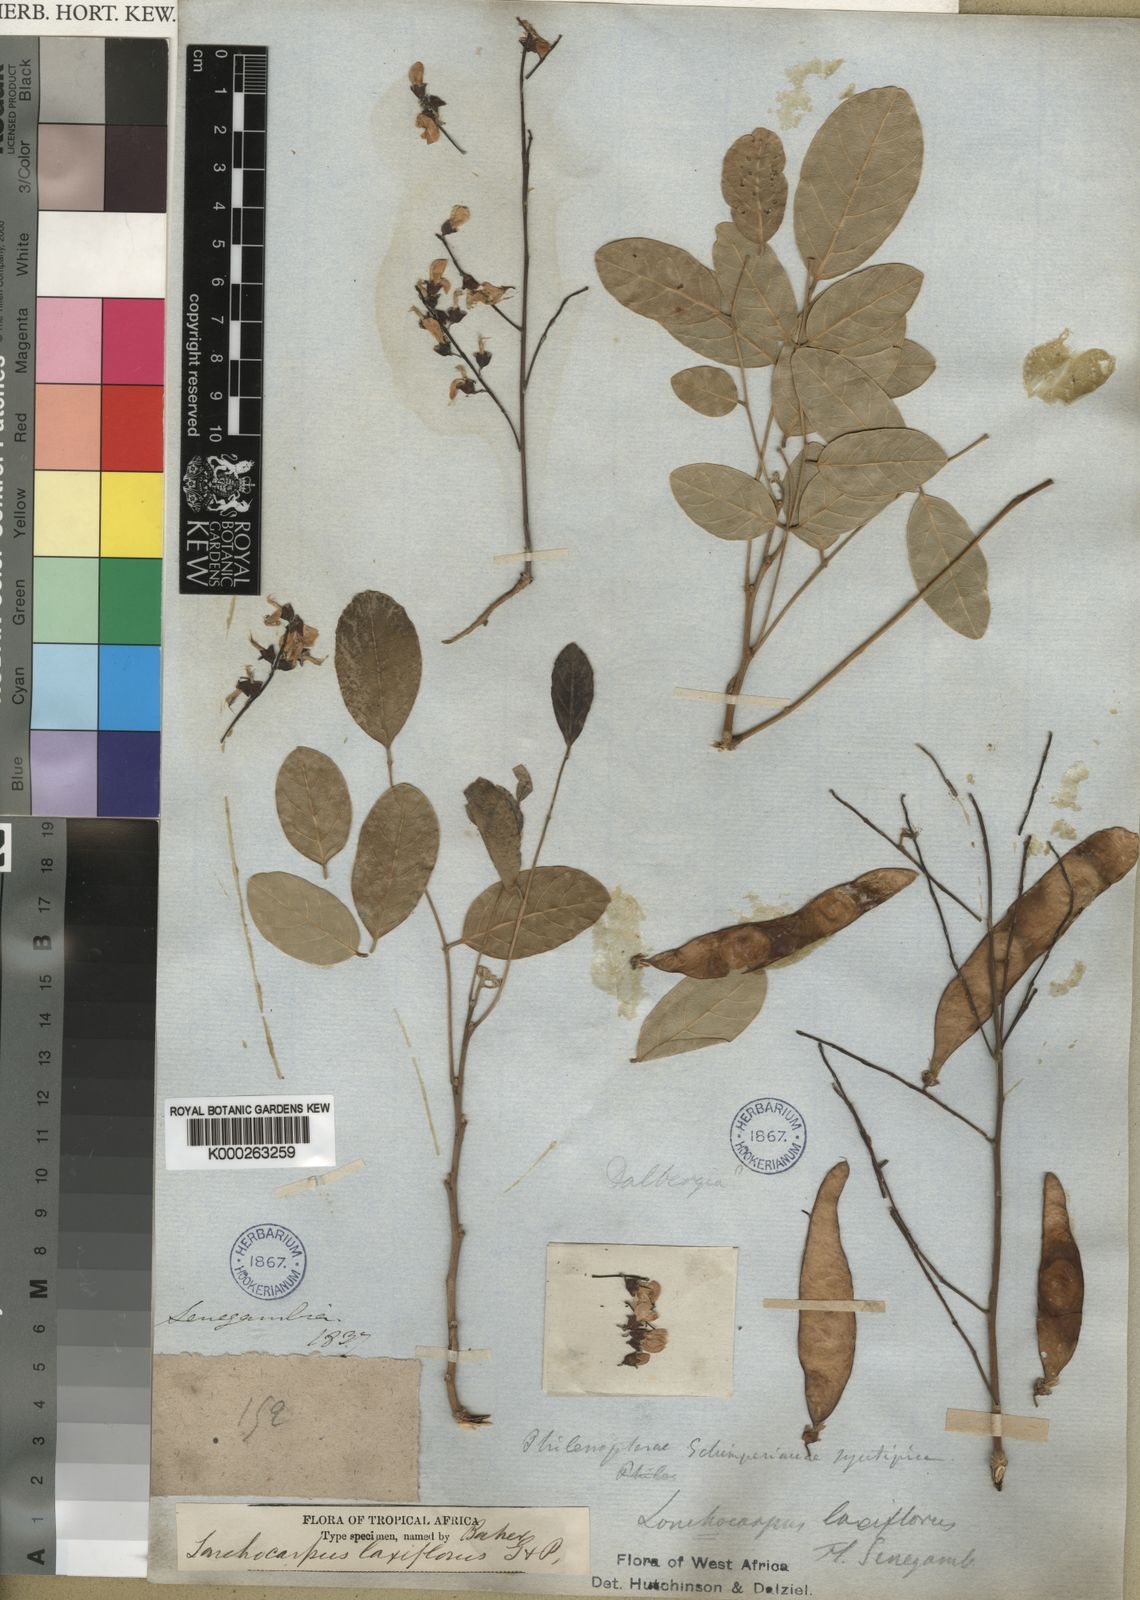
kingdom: Plantae
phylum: Tracheophyta
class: Magnoliopsida
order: Fabales
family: Fabaceae
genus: Philenoptera
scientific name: Philenoptera laxiflora
